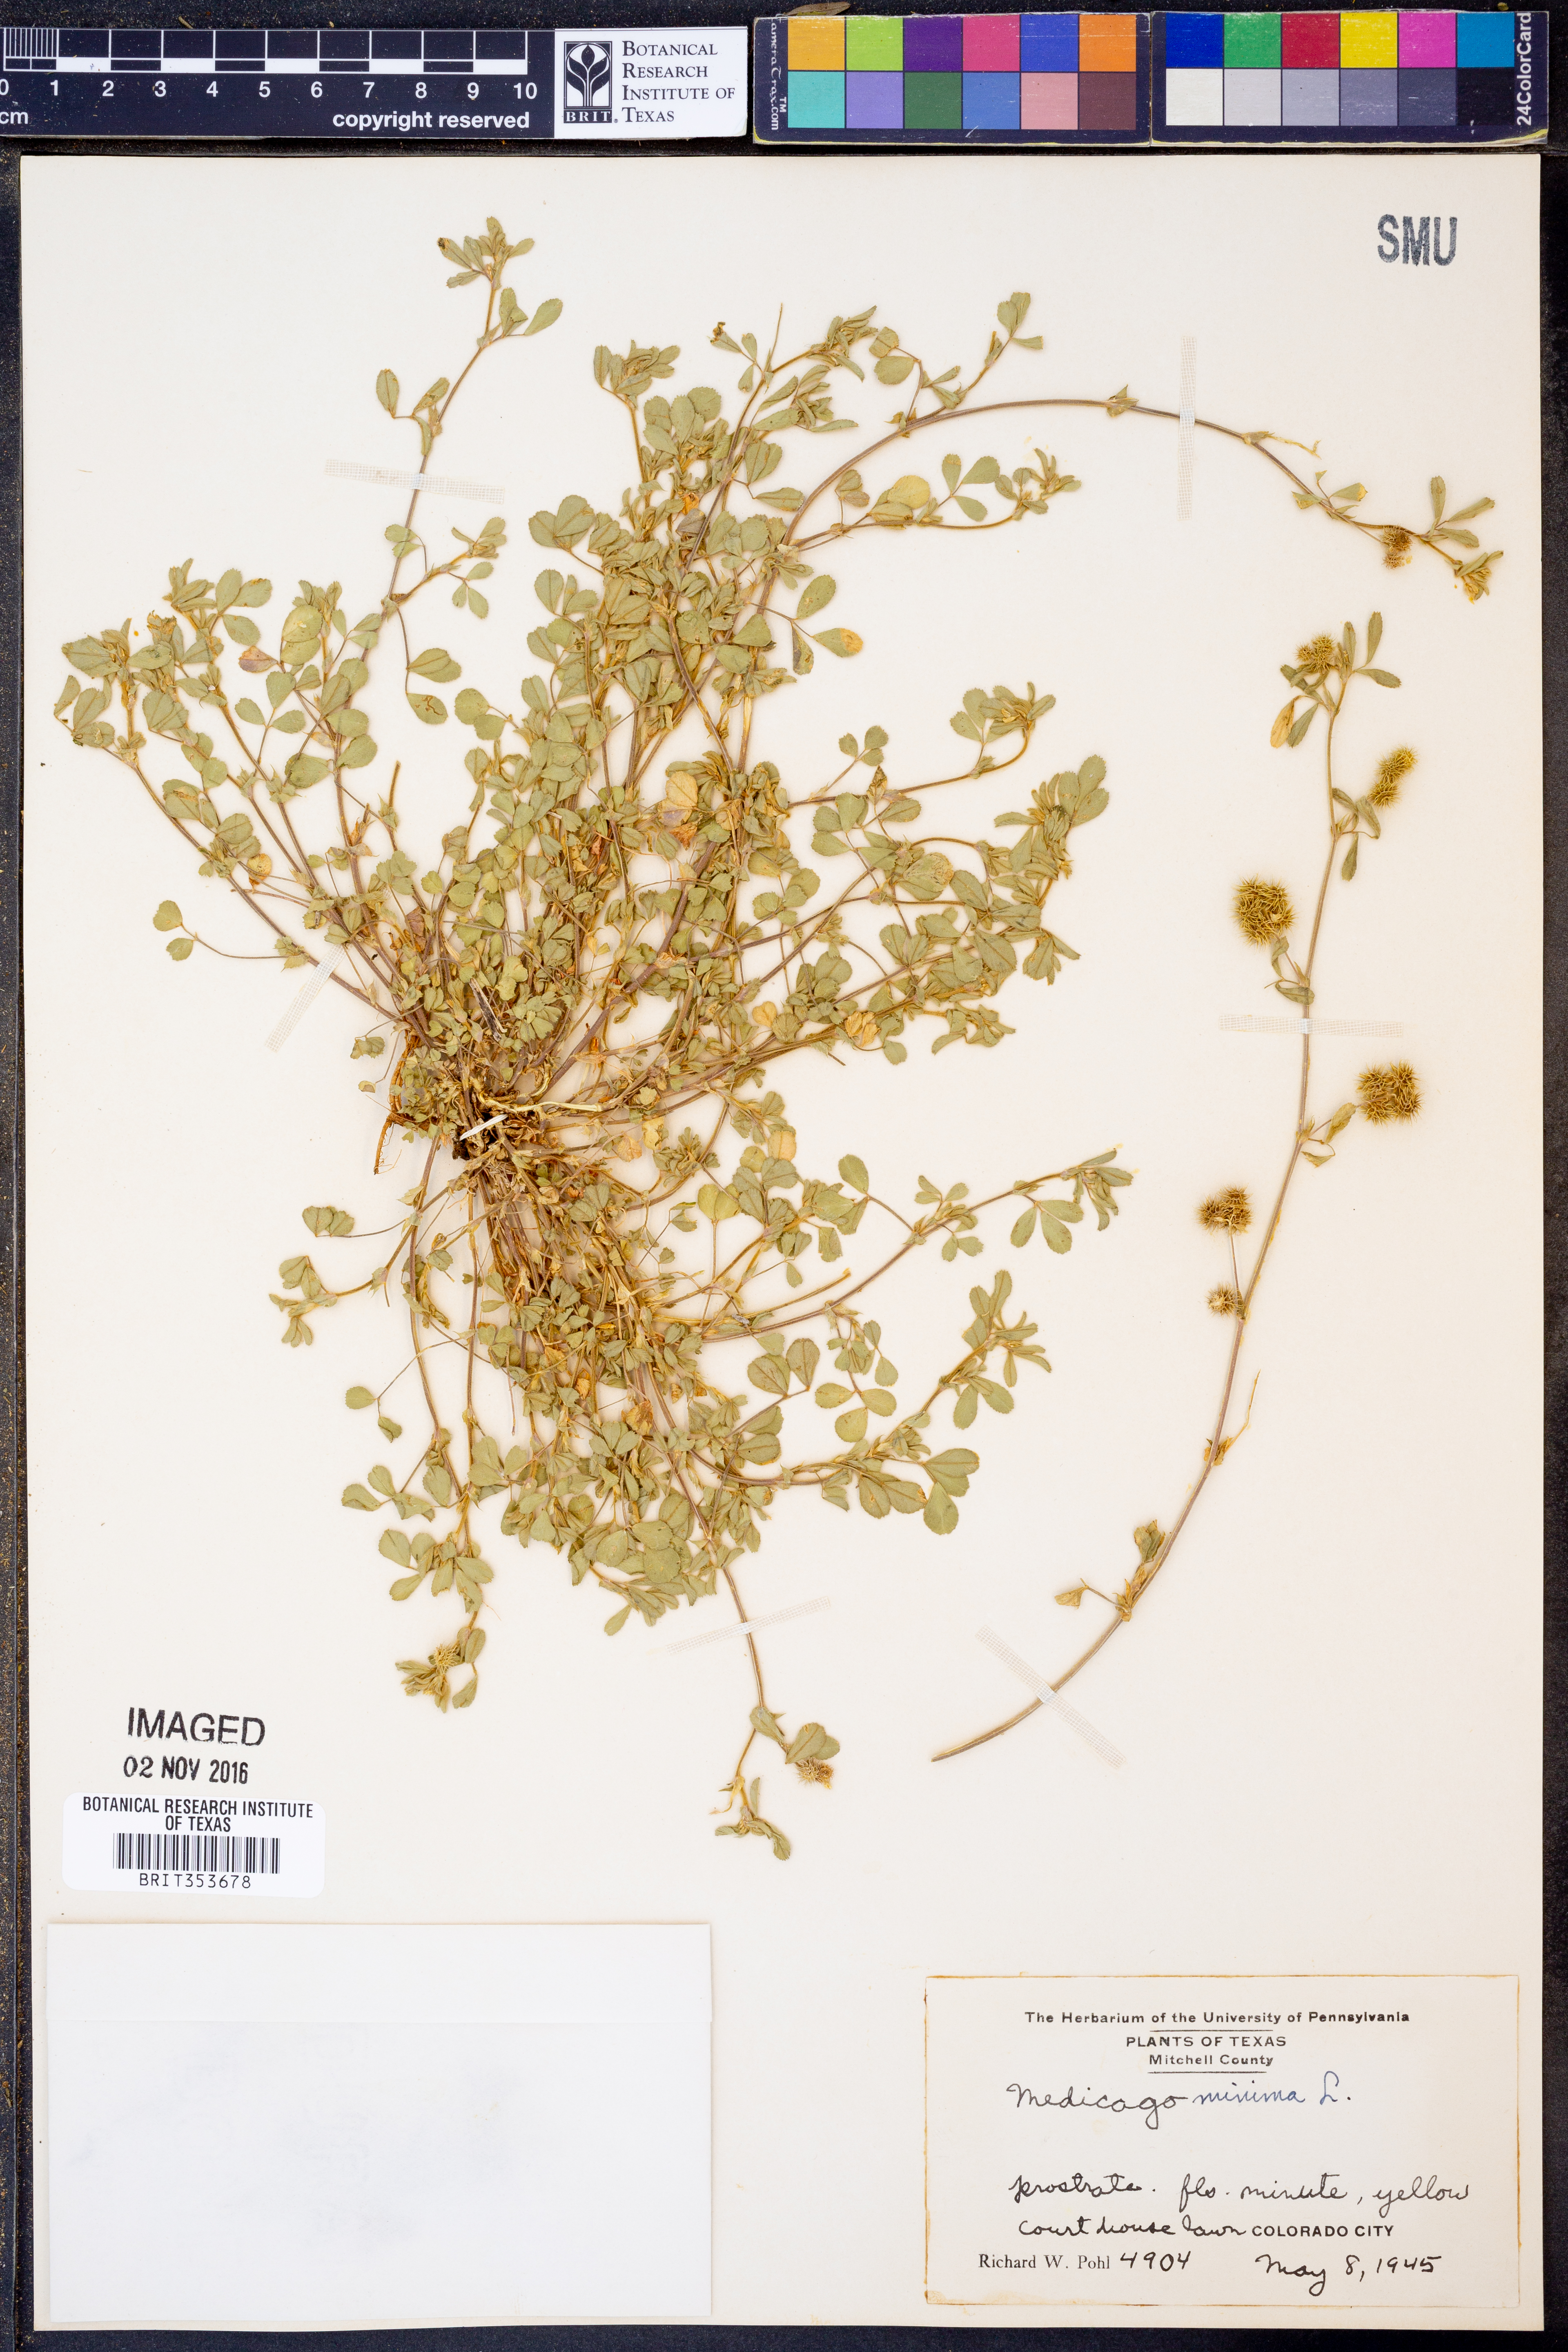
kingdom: Plantae
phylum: Tracheophyta
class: Magnoliopsida
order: Fabales
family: Fabaceae
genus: Medicago
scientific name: Medicago minima
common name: Little bur-clover
